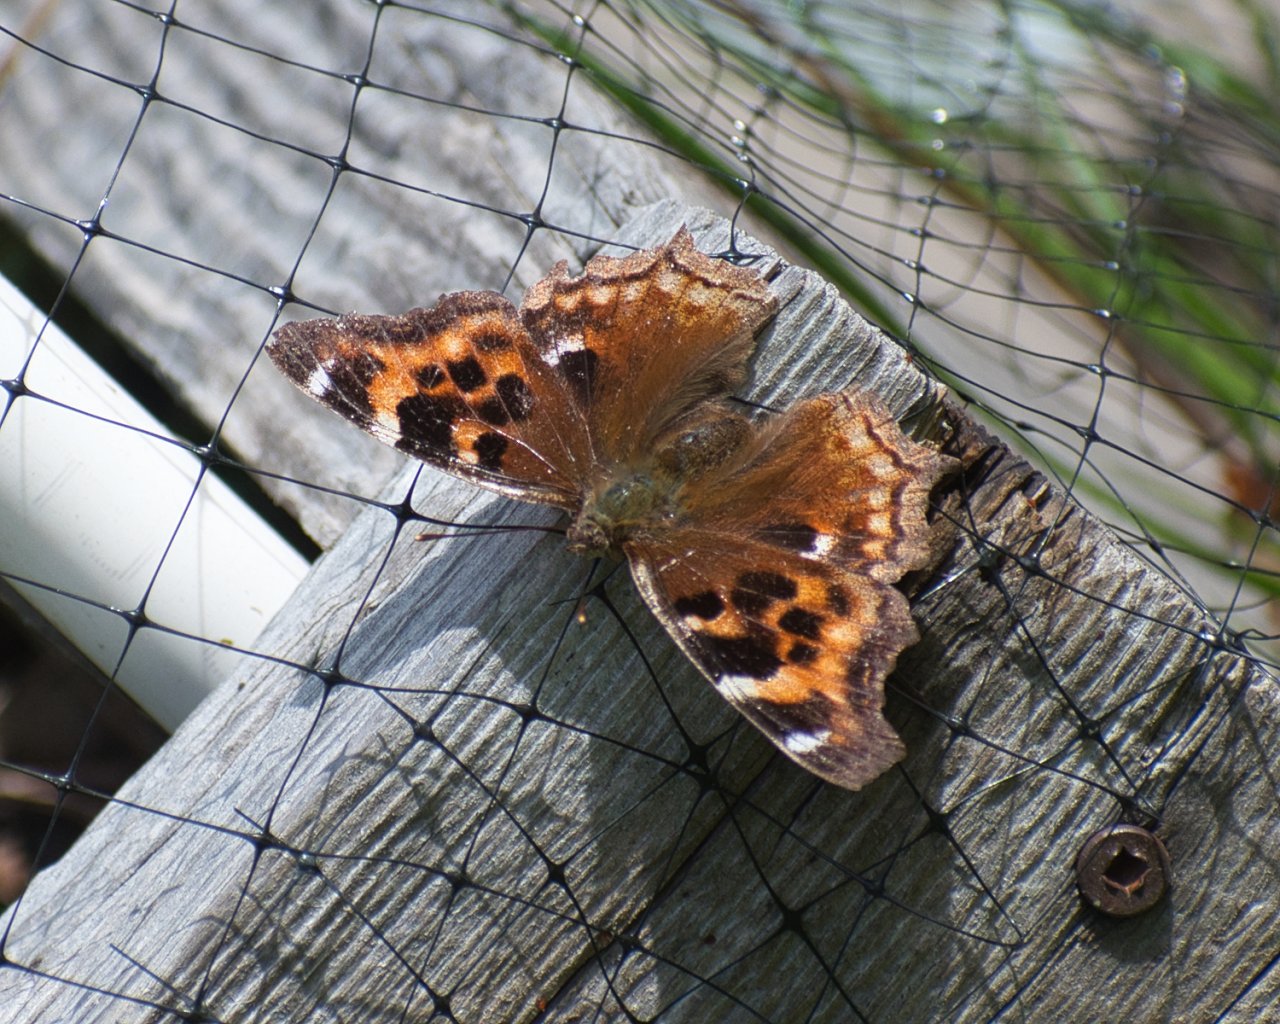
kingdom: Animalia
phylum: Arthropoda
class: Insecta
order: Lepidoptera
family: Nymphalidae
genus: Polygonia
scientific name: Polygonia vaualbum
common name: Compton Tortoiseshell
